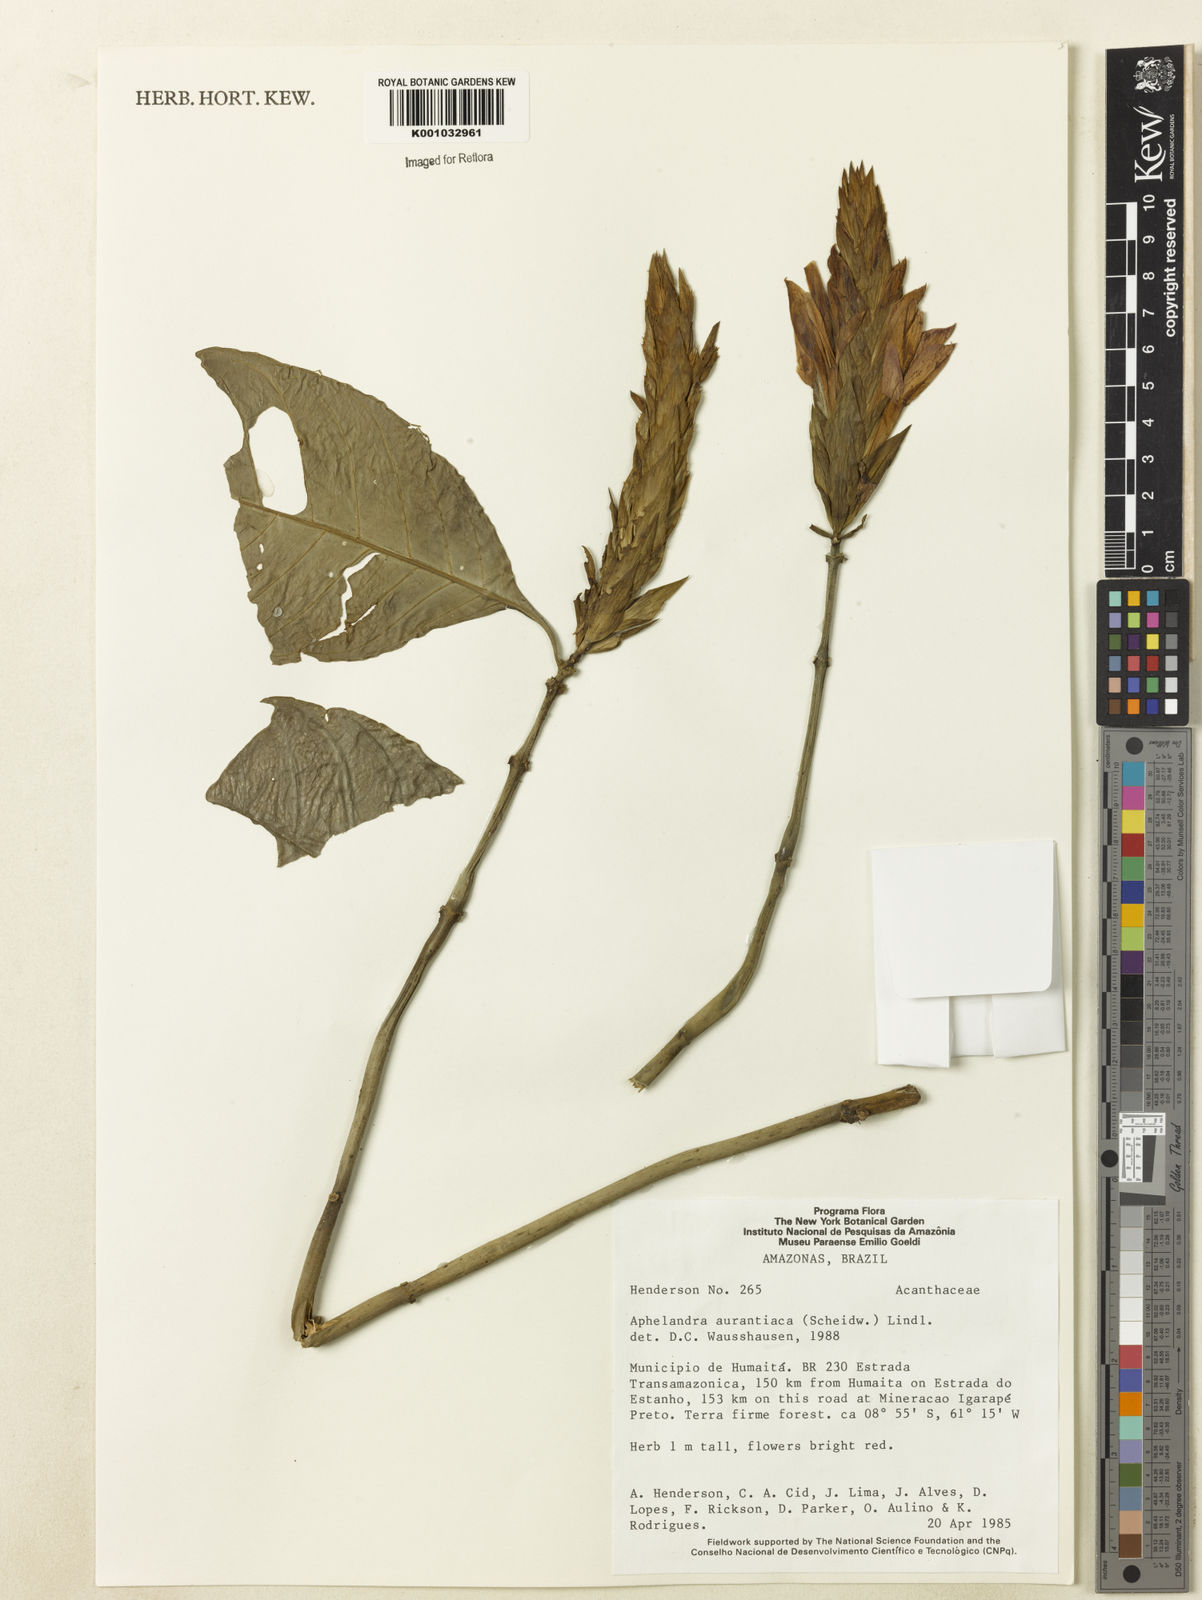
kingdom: Plantae
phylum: Tracheophyta
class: Magnoliopsida
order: Lamiales
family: Acanthaceae
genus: Aphelandra
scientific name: Aphelandra aurantiaca
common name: Fiery spike
